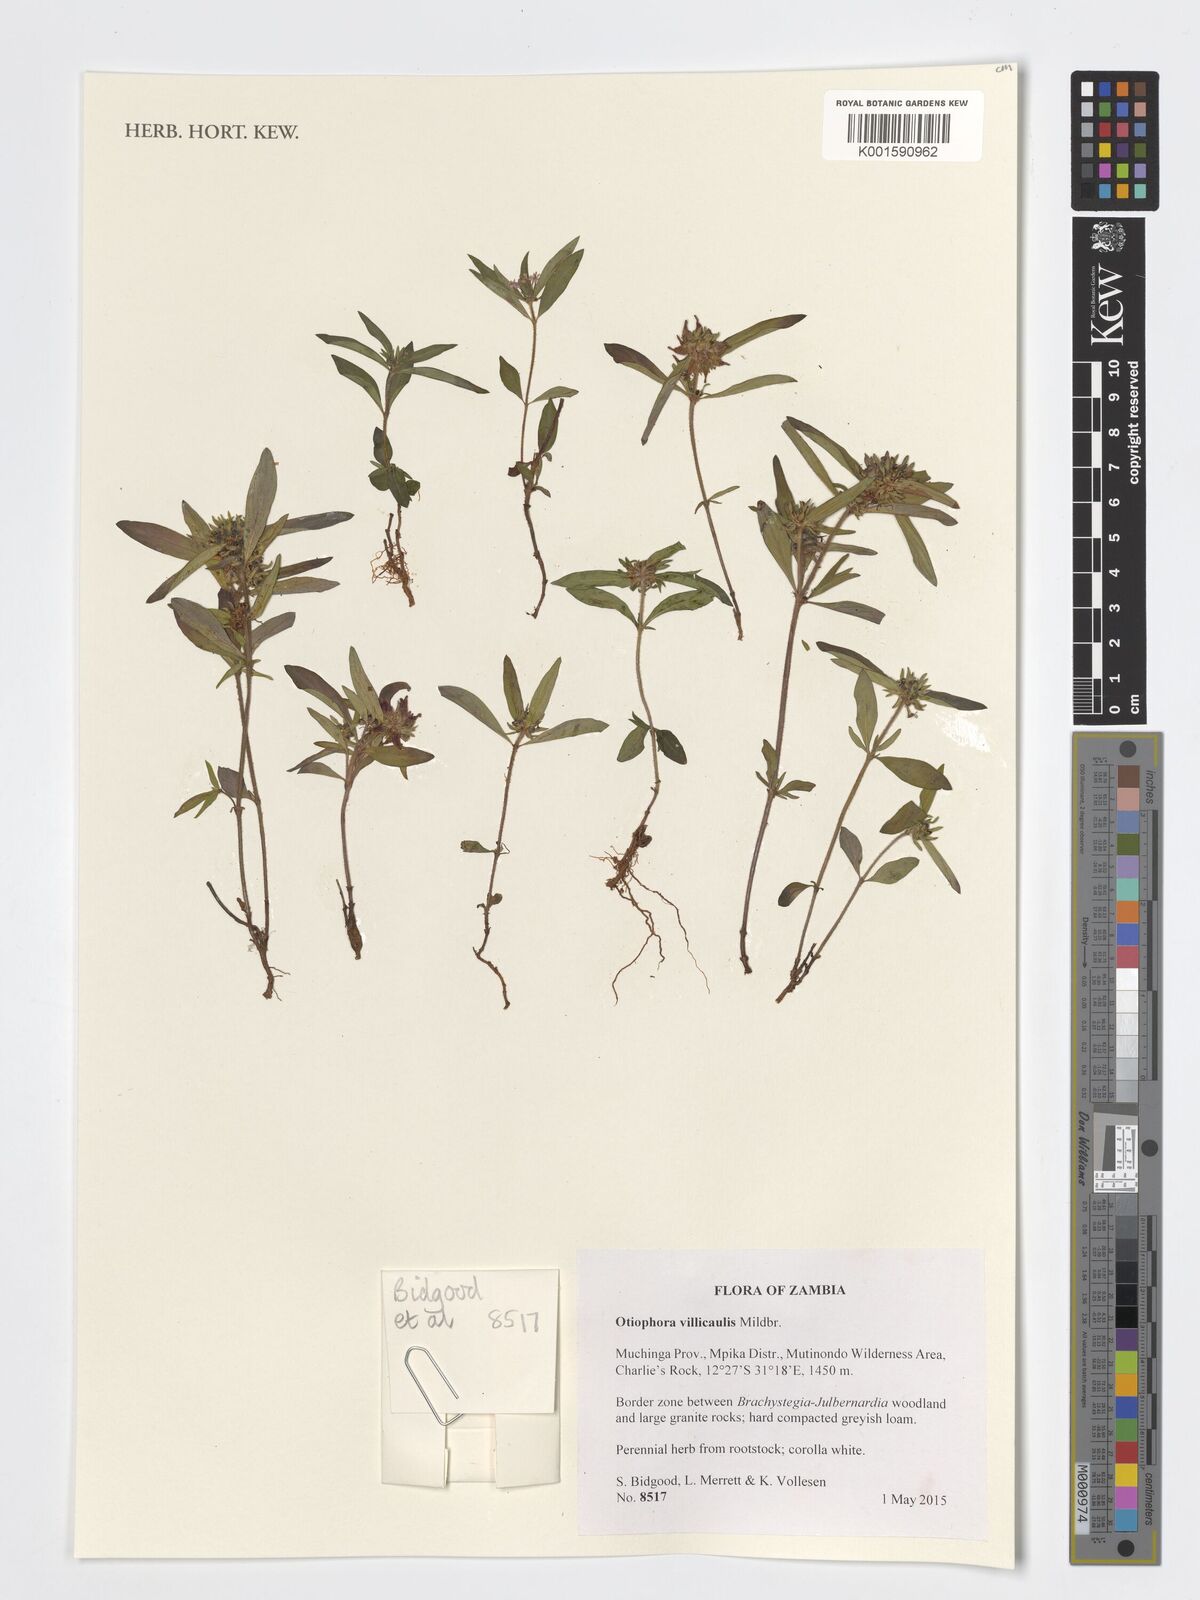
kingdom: Plantae
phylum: Tracheophyta
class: Magnoliopsida
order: Gentianales
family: Rubiaceae
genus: Otiophora
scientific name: Otiophora villicaulis
